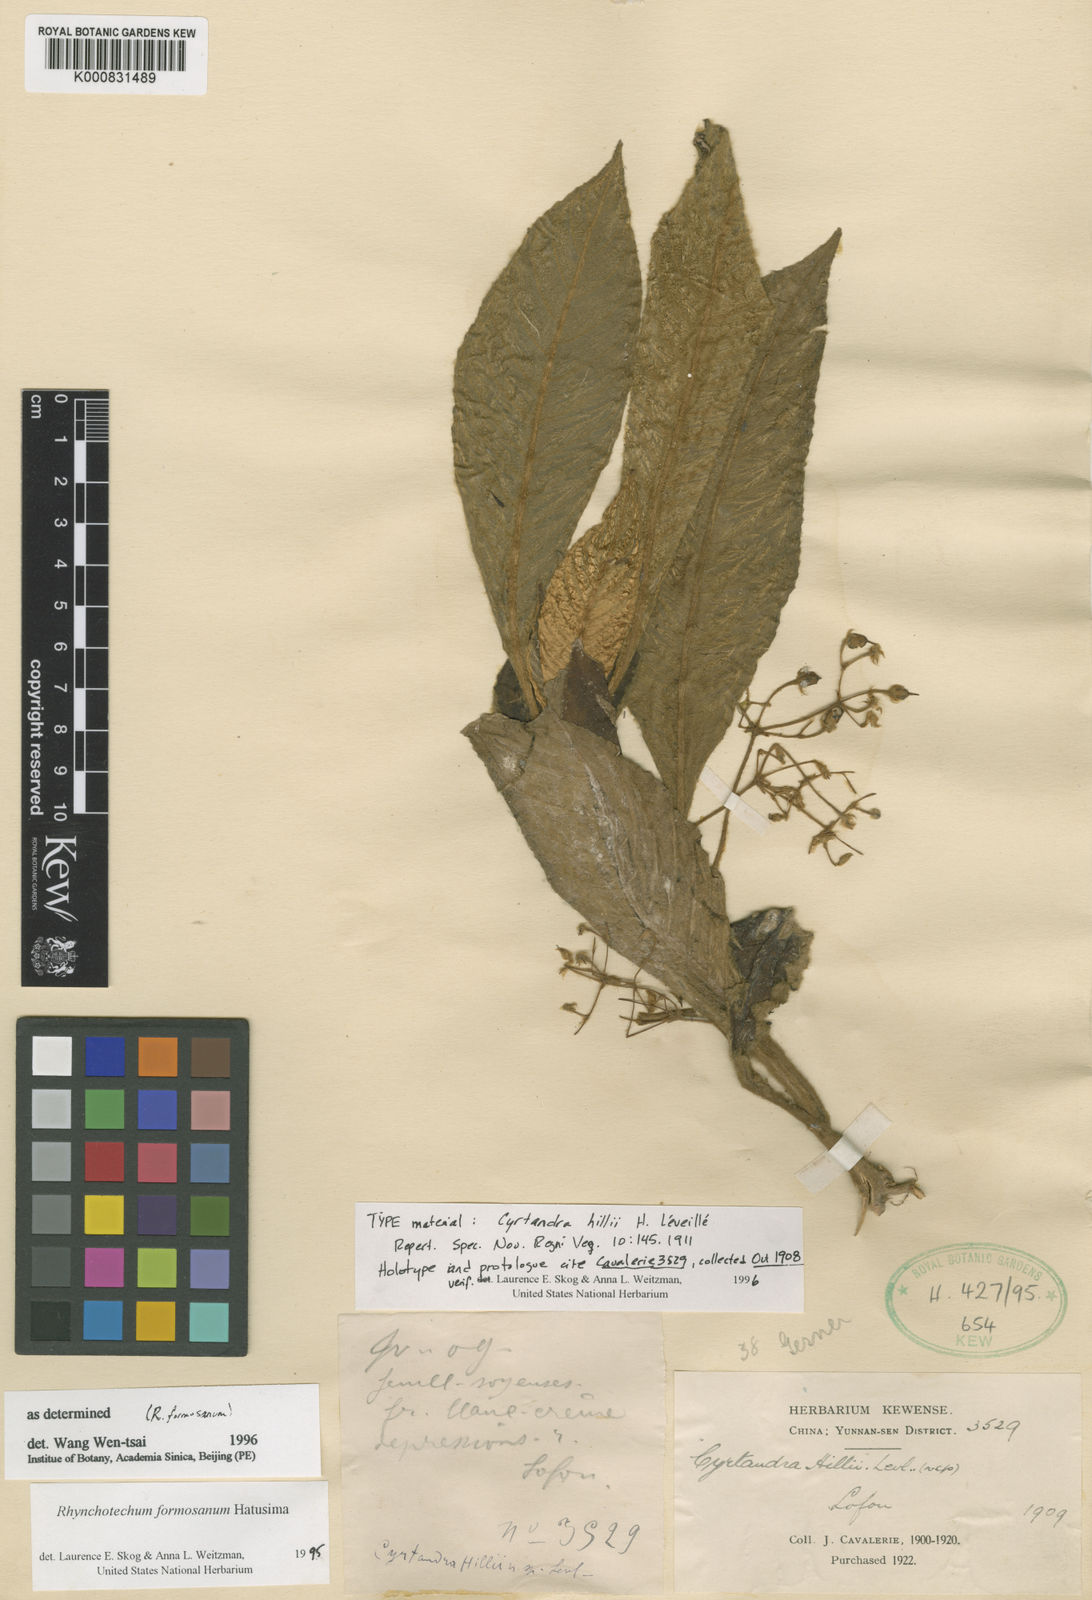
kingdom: Plantae
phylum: Tracheophyta
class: Magnoliopsida
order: Lamiales
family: Gesneriaceae
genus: Cyrtandra
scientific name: Cyrtandra
